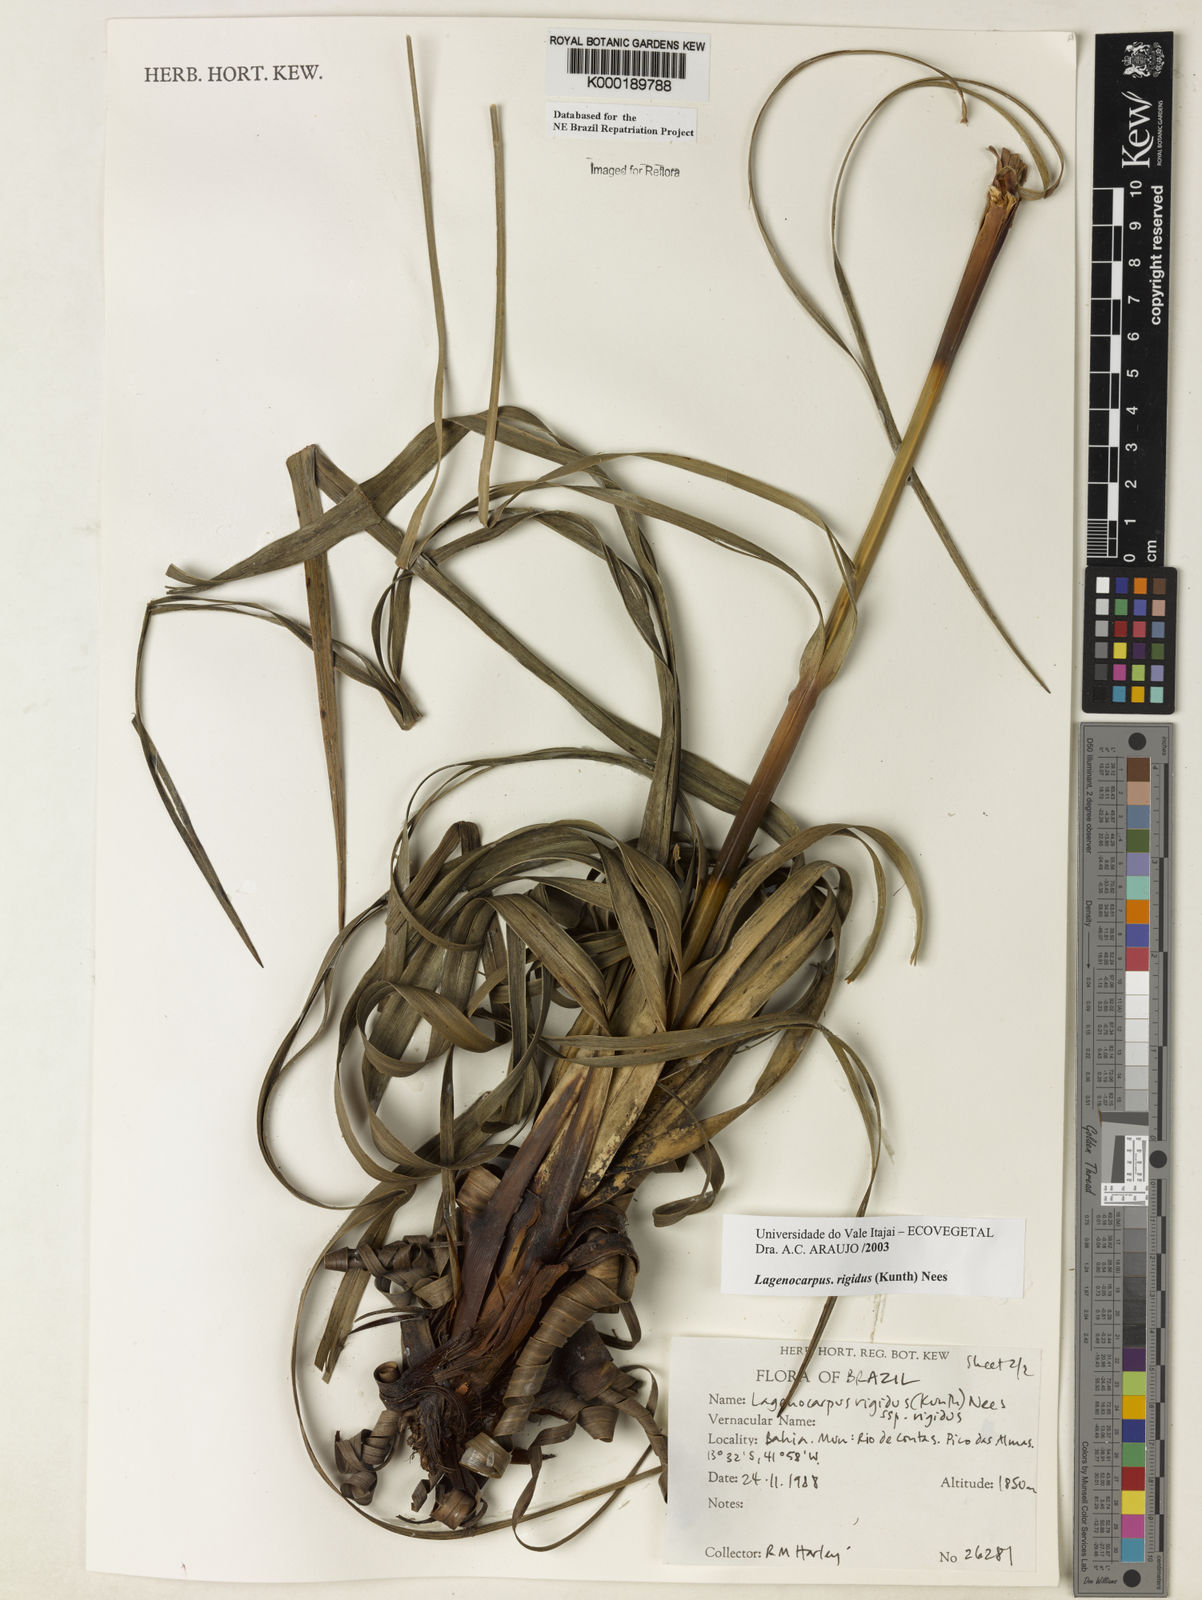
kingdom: Plantae
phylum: Tracheophyta
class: Liliopsida
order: Poales
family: Cyperaceae
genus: Lagenocarpus
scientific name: Lagenocarpus rigidus
